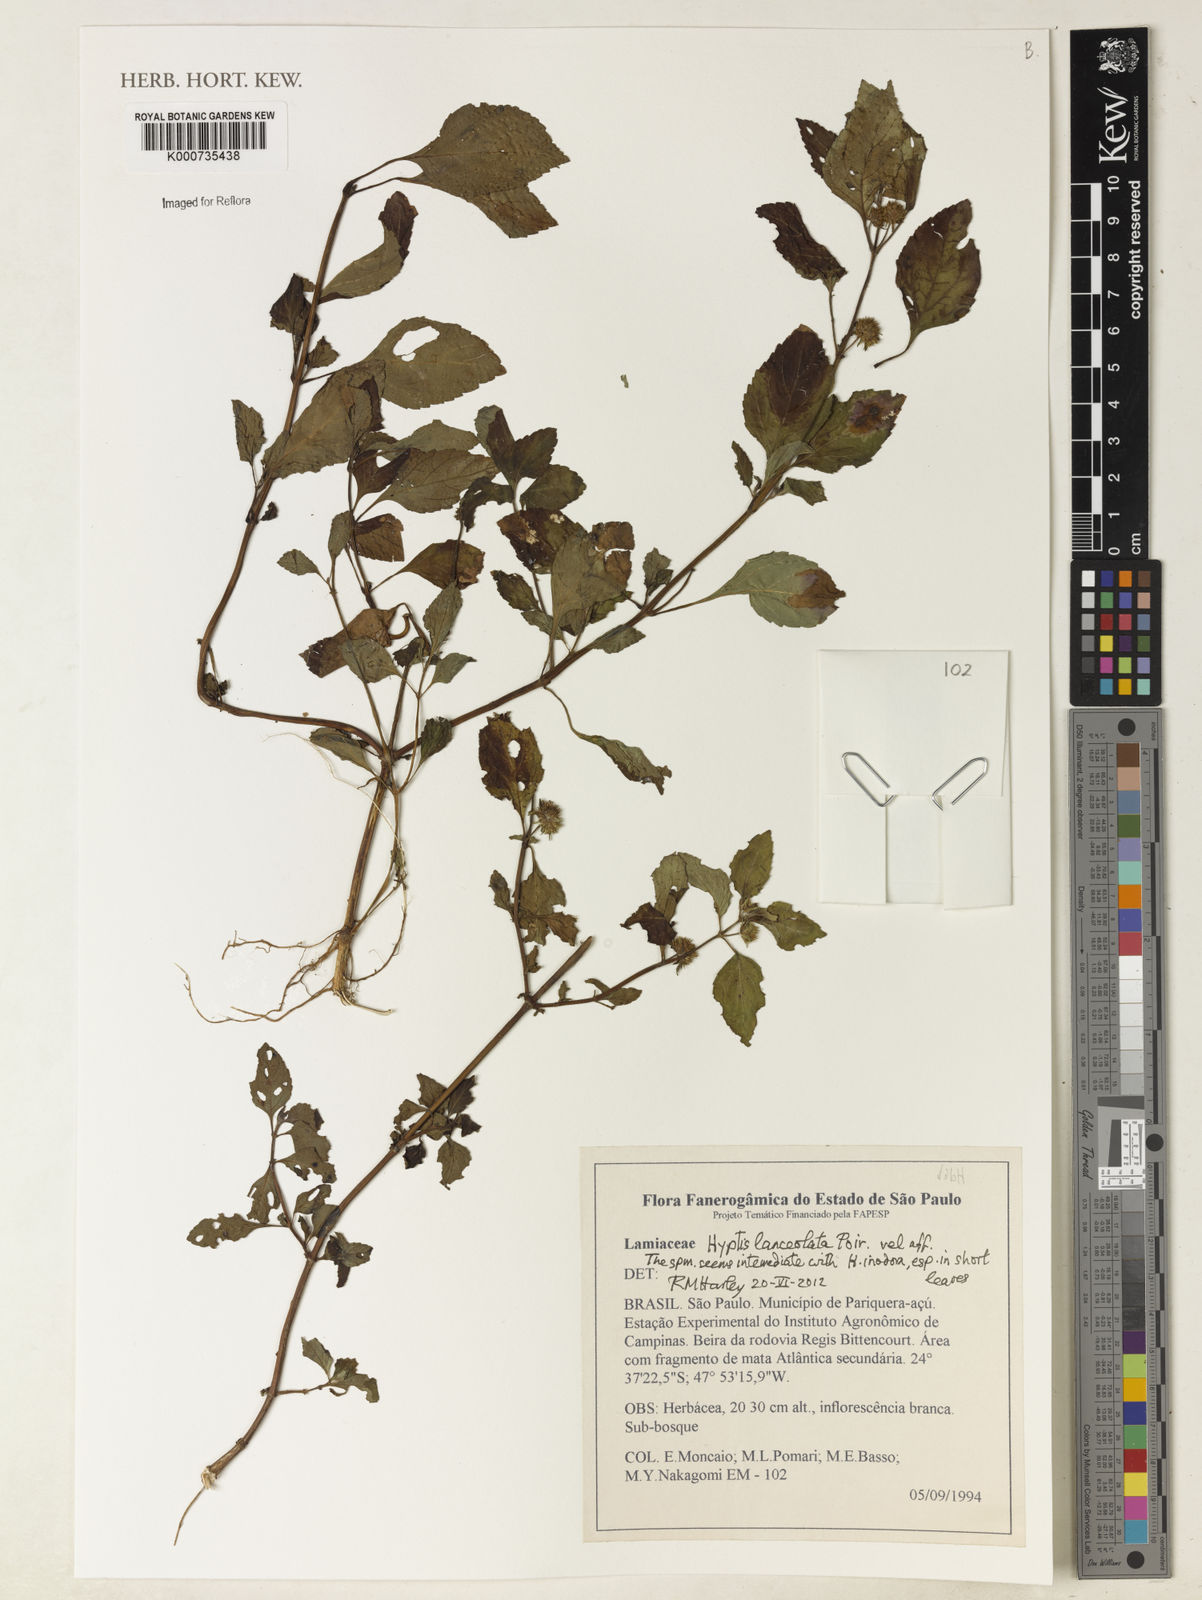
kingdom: Plantae
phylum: Tracheophyta
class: Magnoliopsida
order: Lamiales
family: Lamiaceae
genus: Hyptis
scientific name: Hyptis lanceolata
